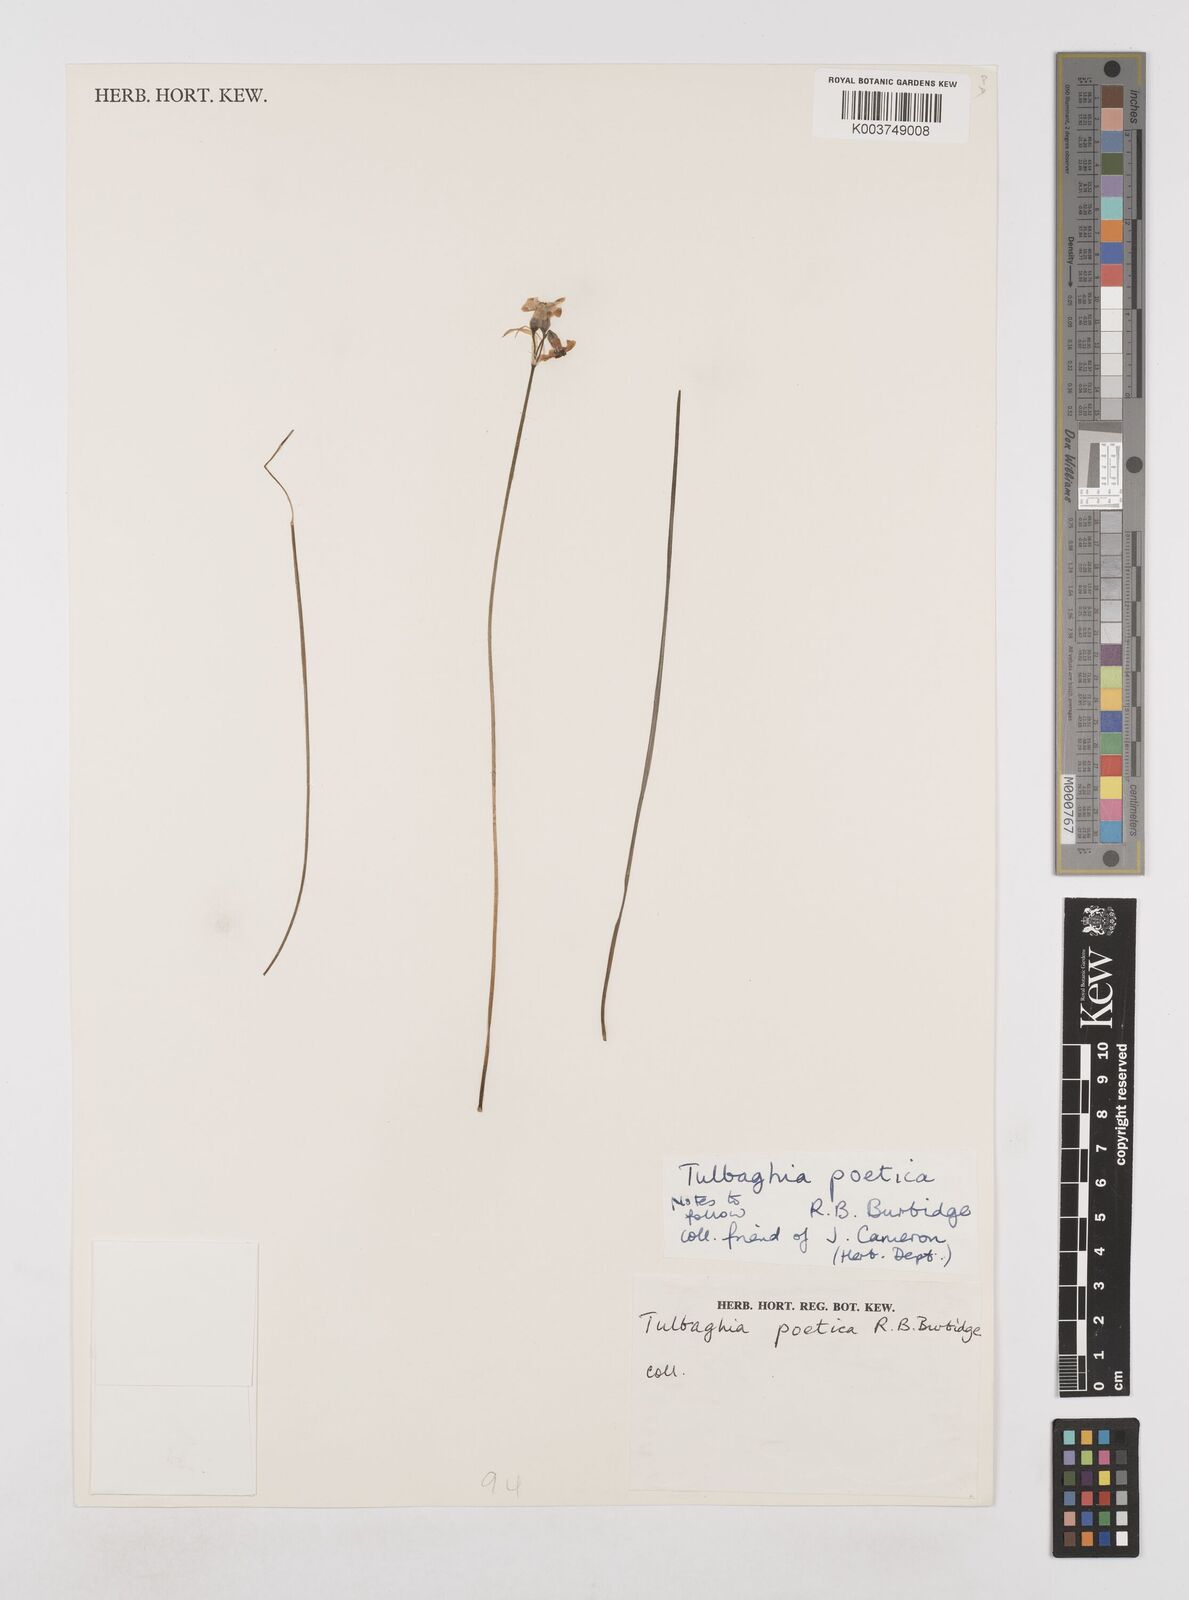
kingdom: Plantae
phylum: Tracheophyta
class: Liliopsida
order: Asparagales
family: Amaryllidaceae
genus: Tulbaghia
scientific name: Tulbaghia coddii
